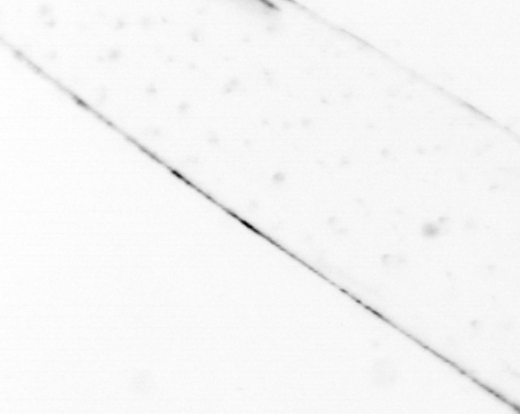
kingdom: Animalia
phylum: Chaetognatha
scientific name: Chaetognatha
